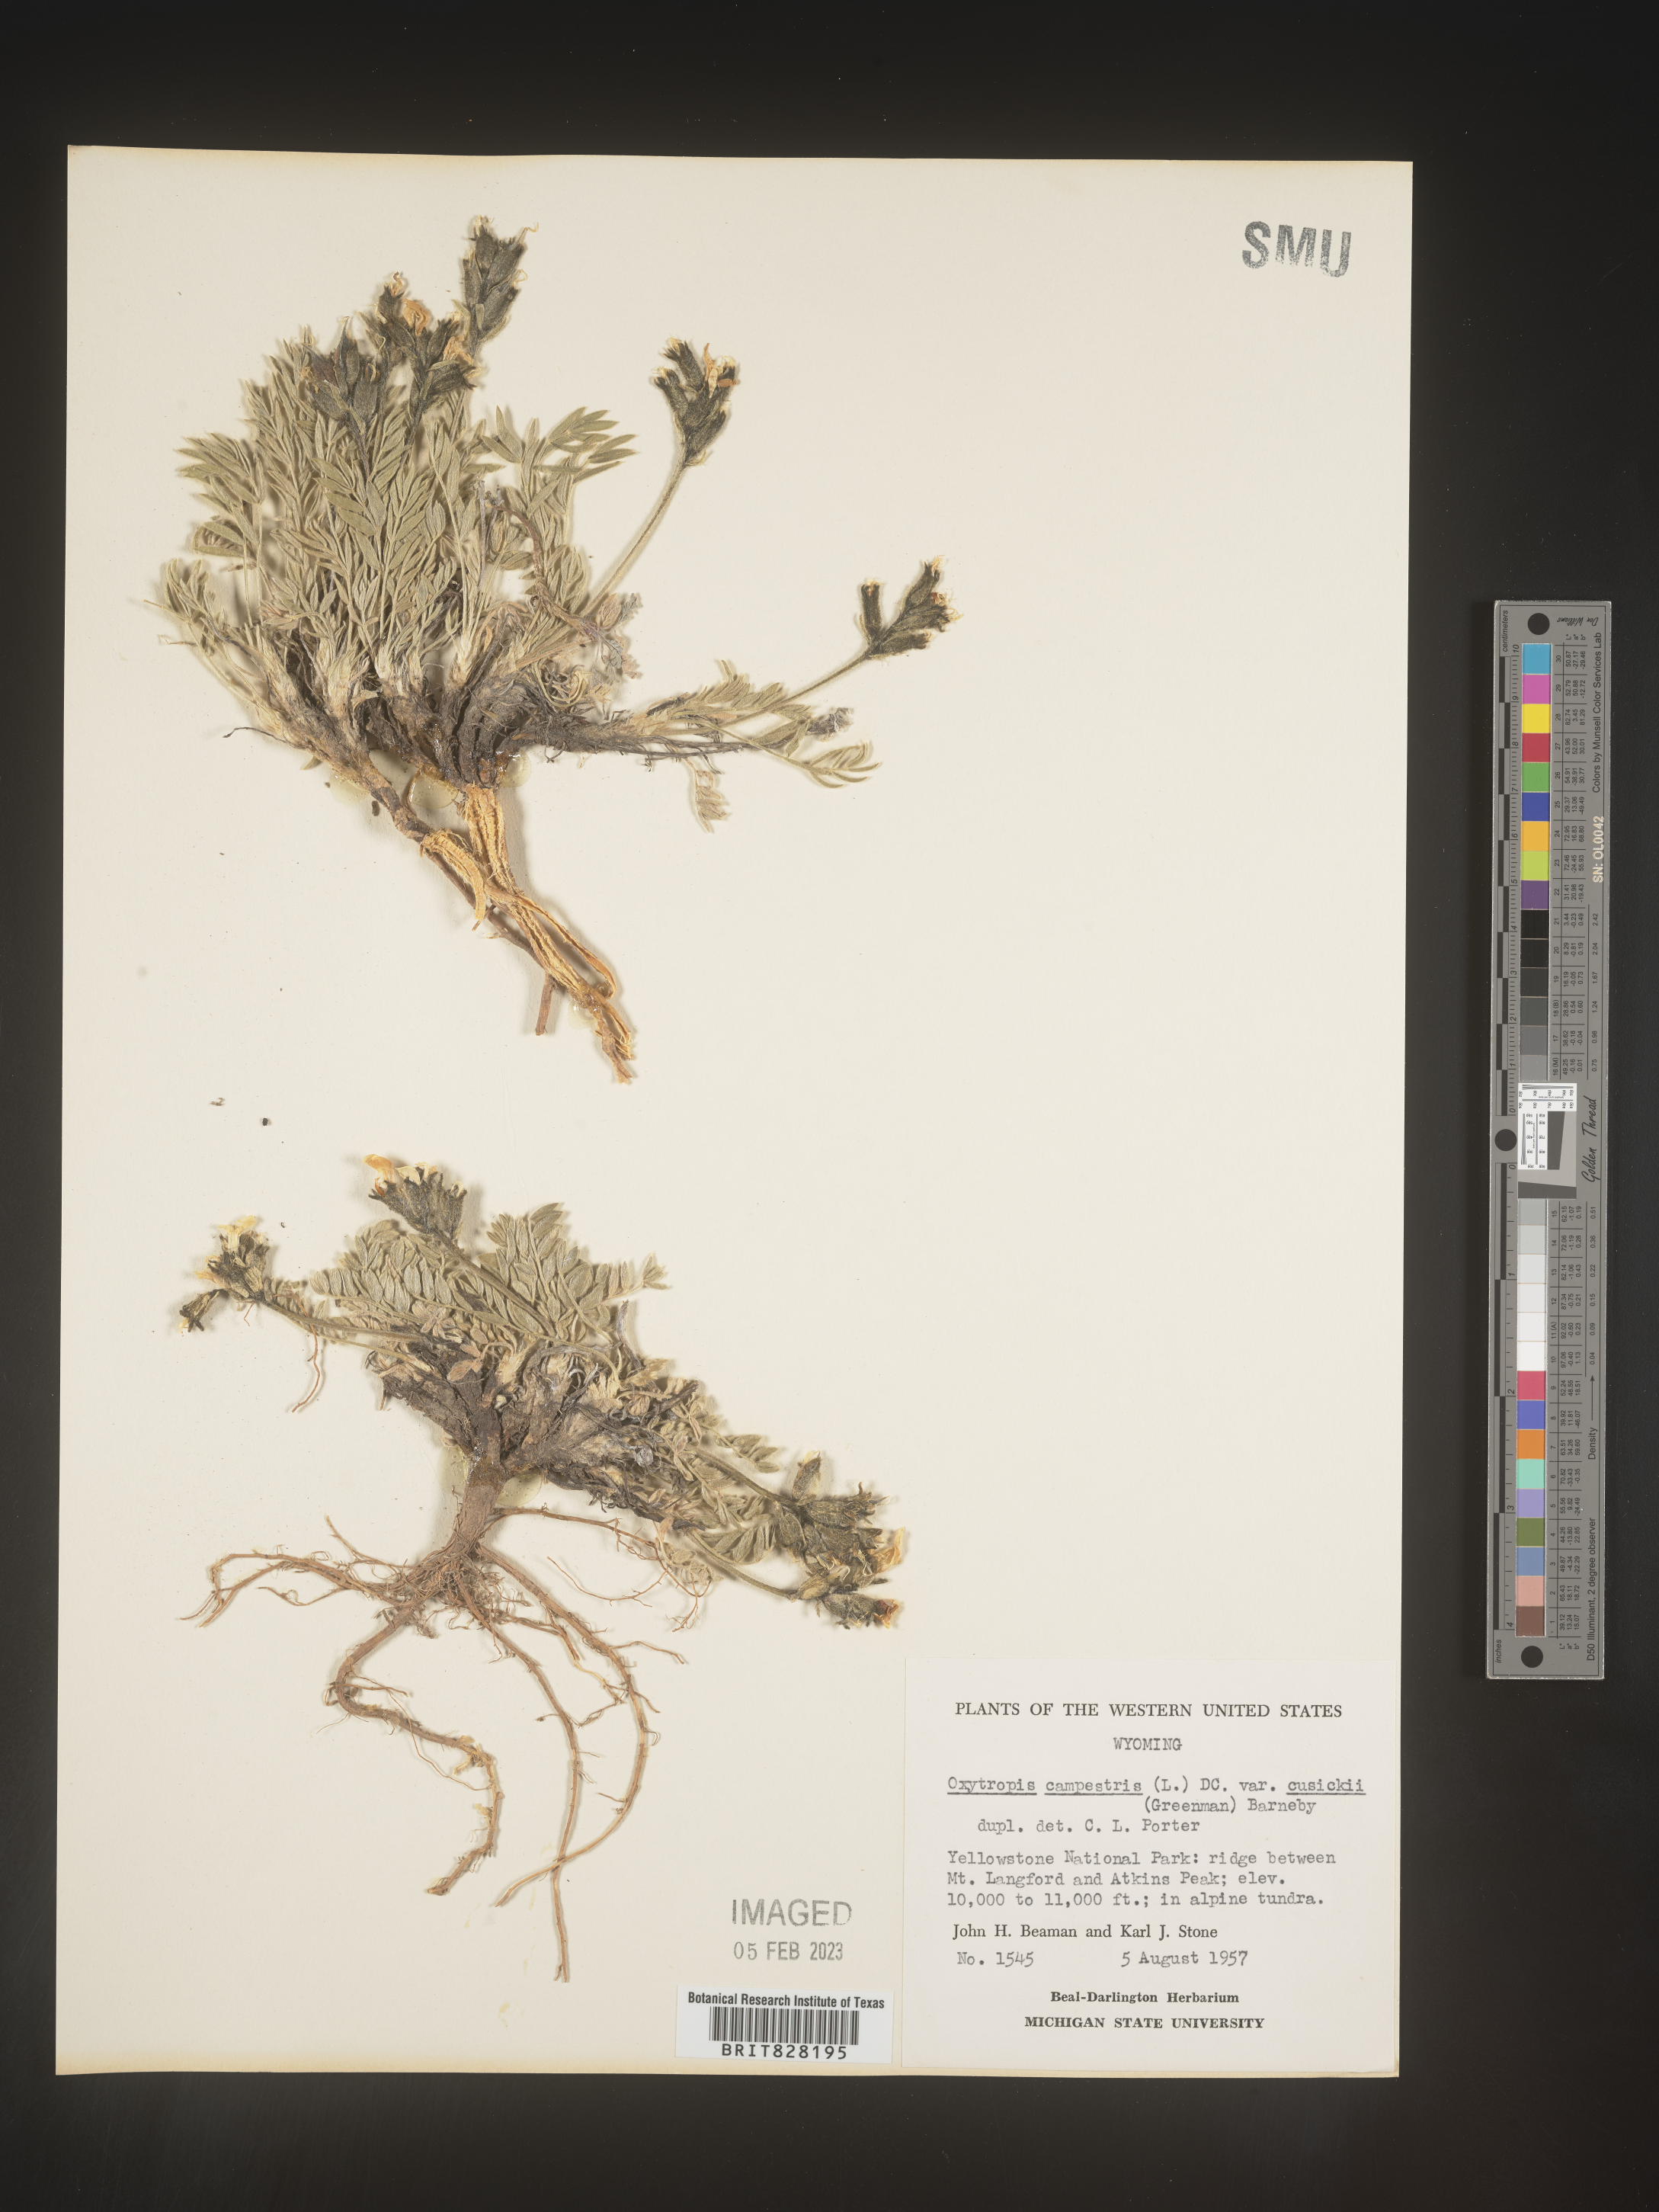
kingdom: Plantae
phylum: Tracheophyta
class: Magnoliopsida
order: Fabales
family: Fabaceae
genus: Oxytropis
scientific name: Oxytropis campestris
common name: Field locoweed
